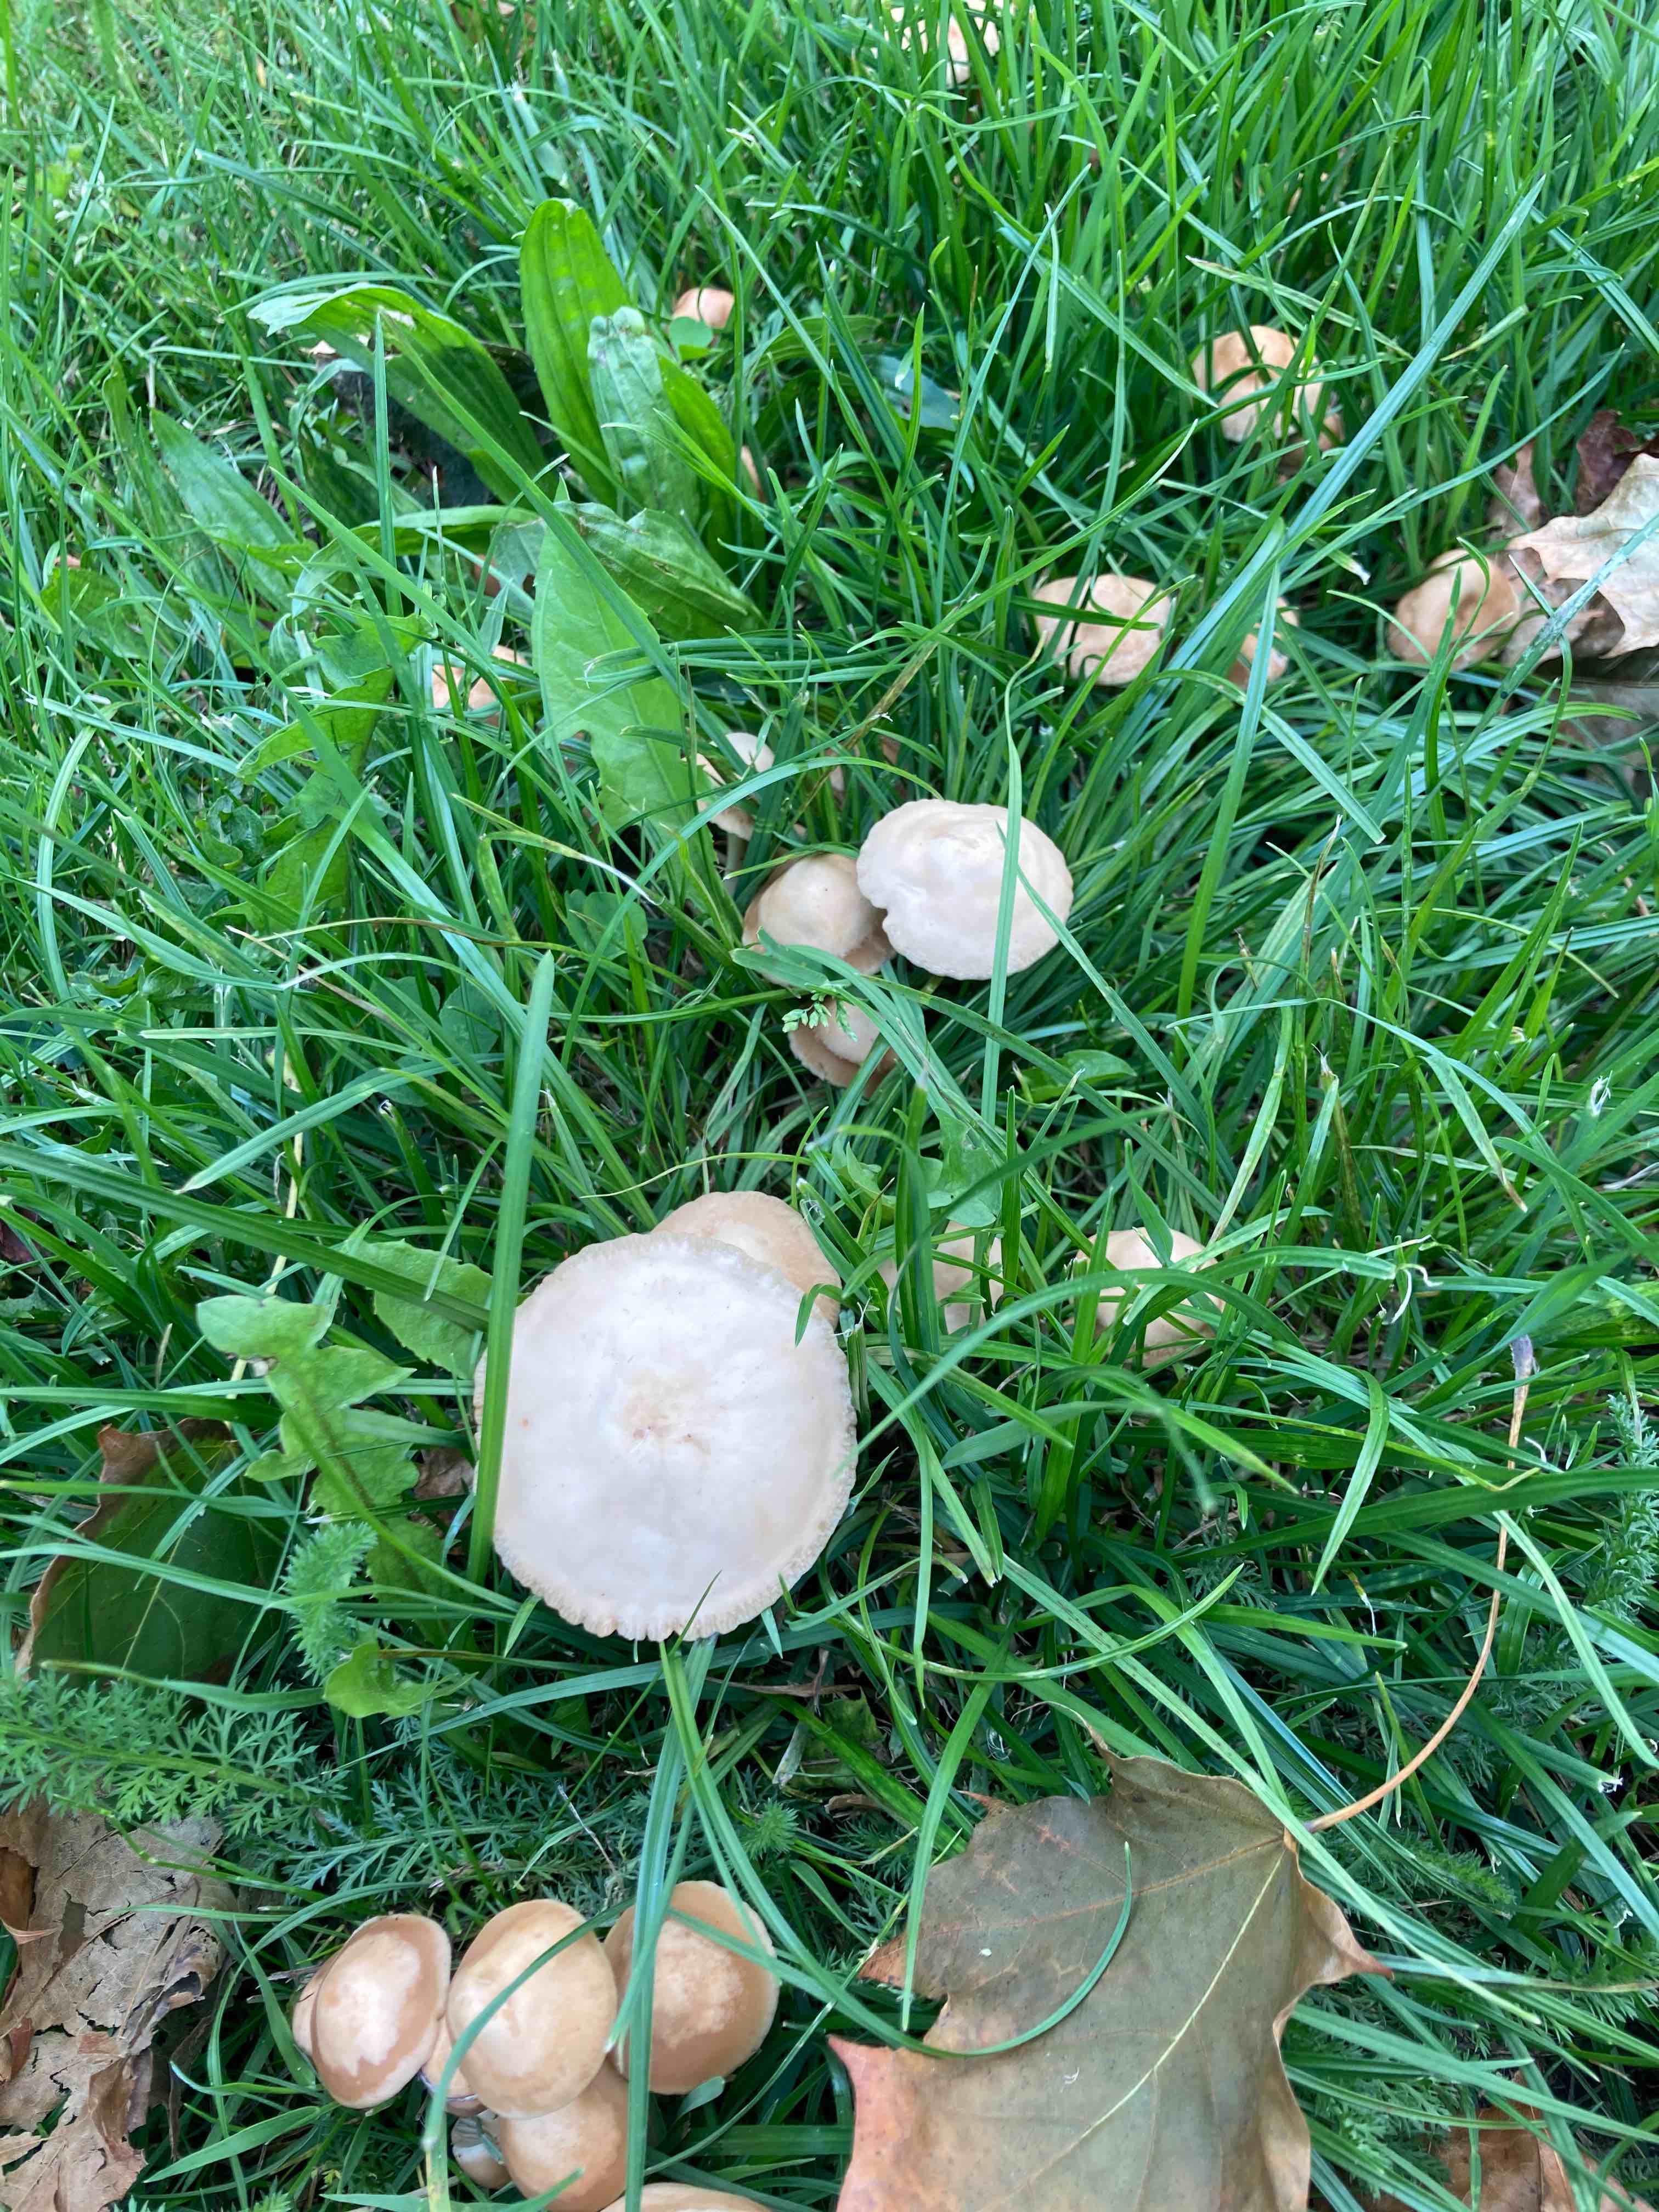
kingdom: Fungi
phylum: Basidiomycota
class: Agaricomycetes
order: Agaricales
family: Marasmiaceae
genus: Marasmius
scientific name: Marasmius oreades
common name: elledans-bruskhat
